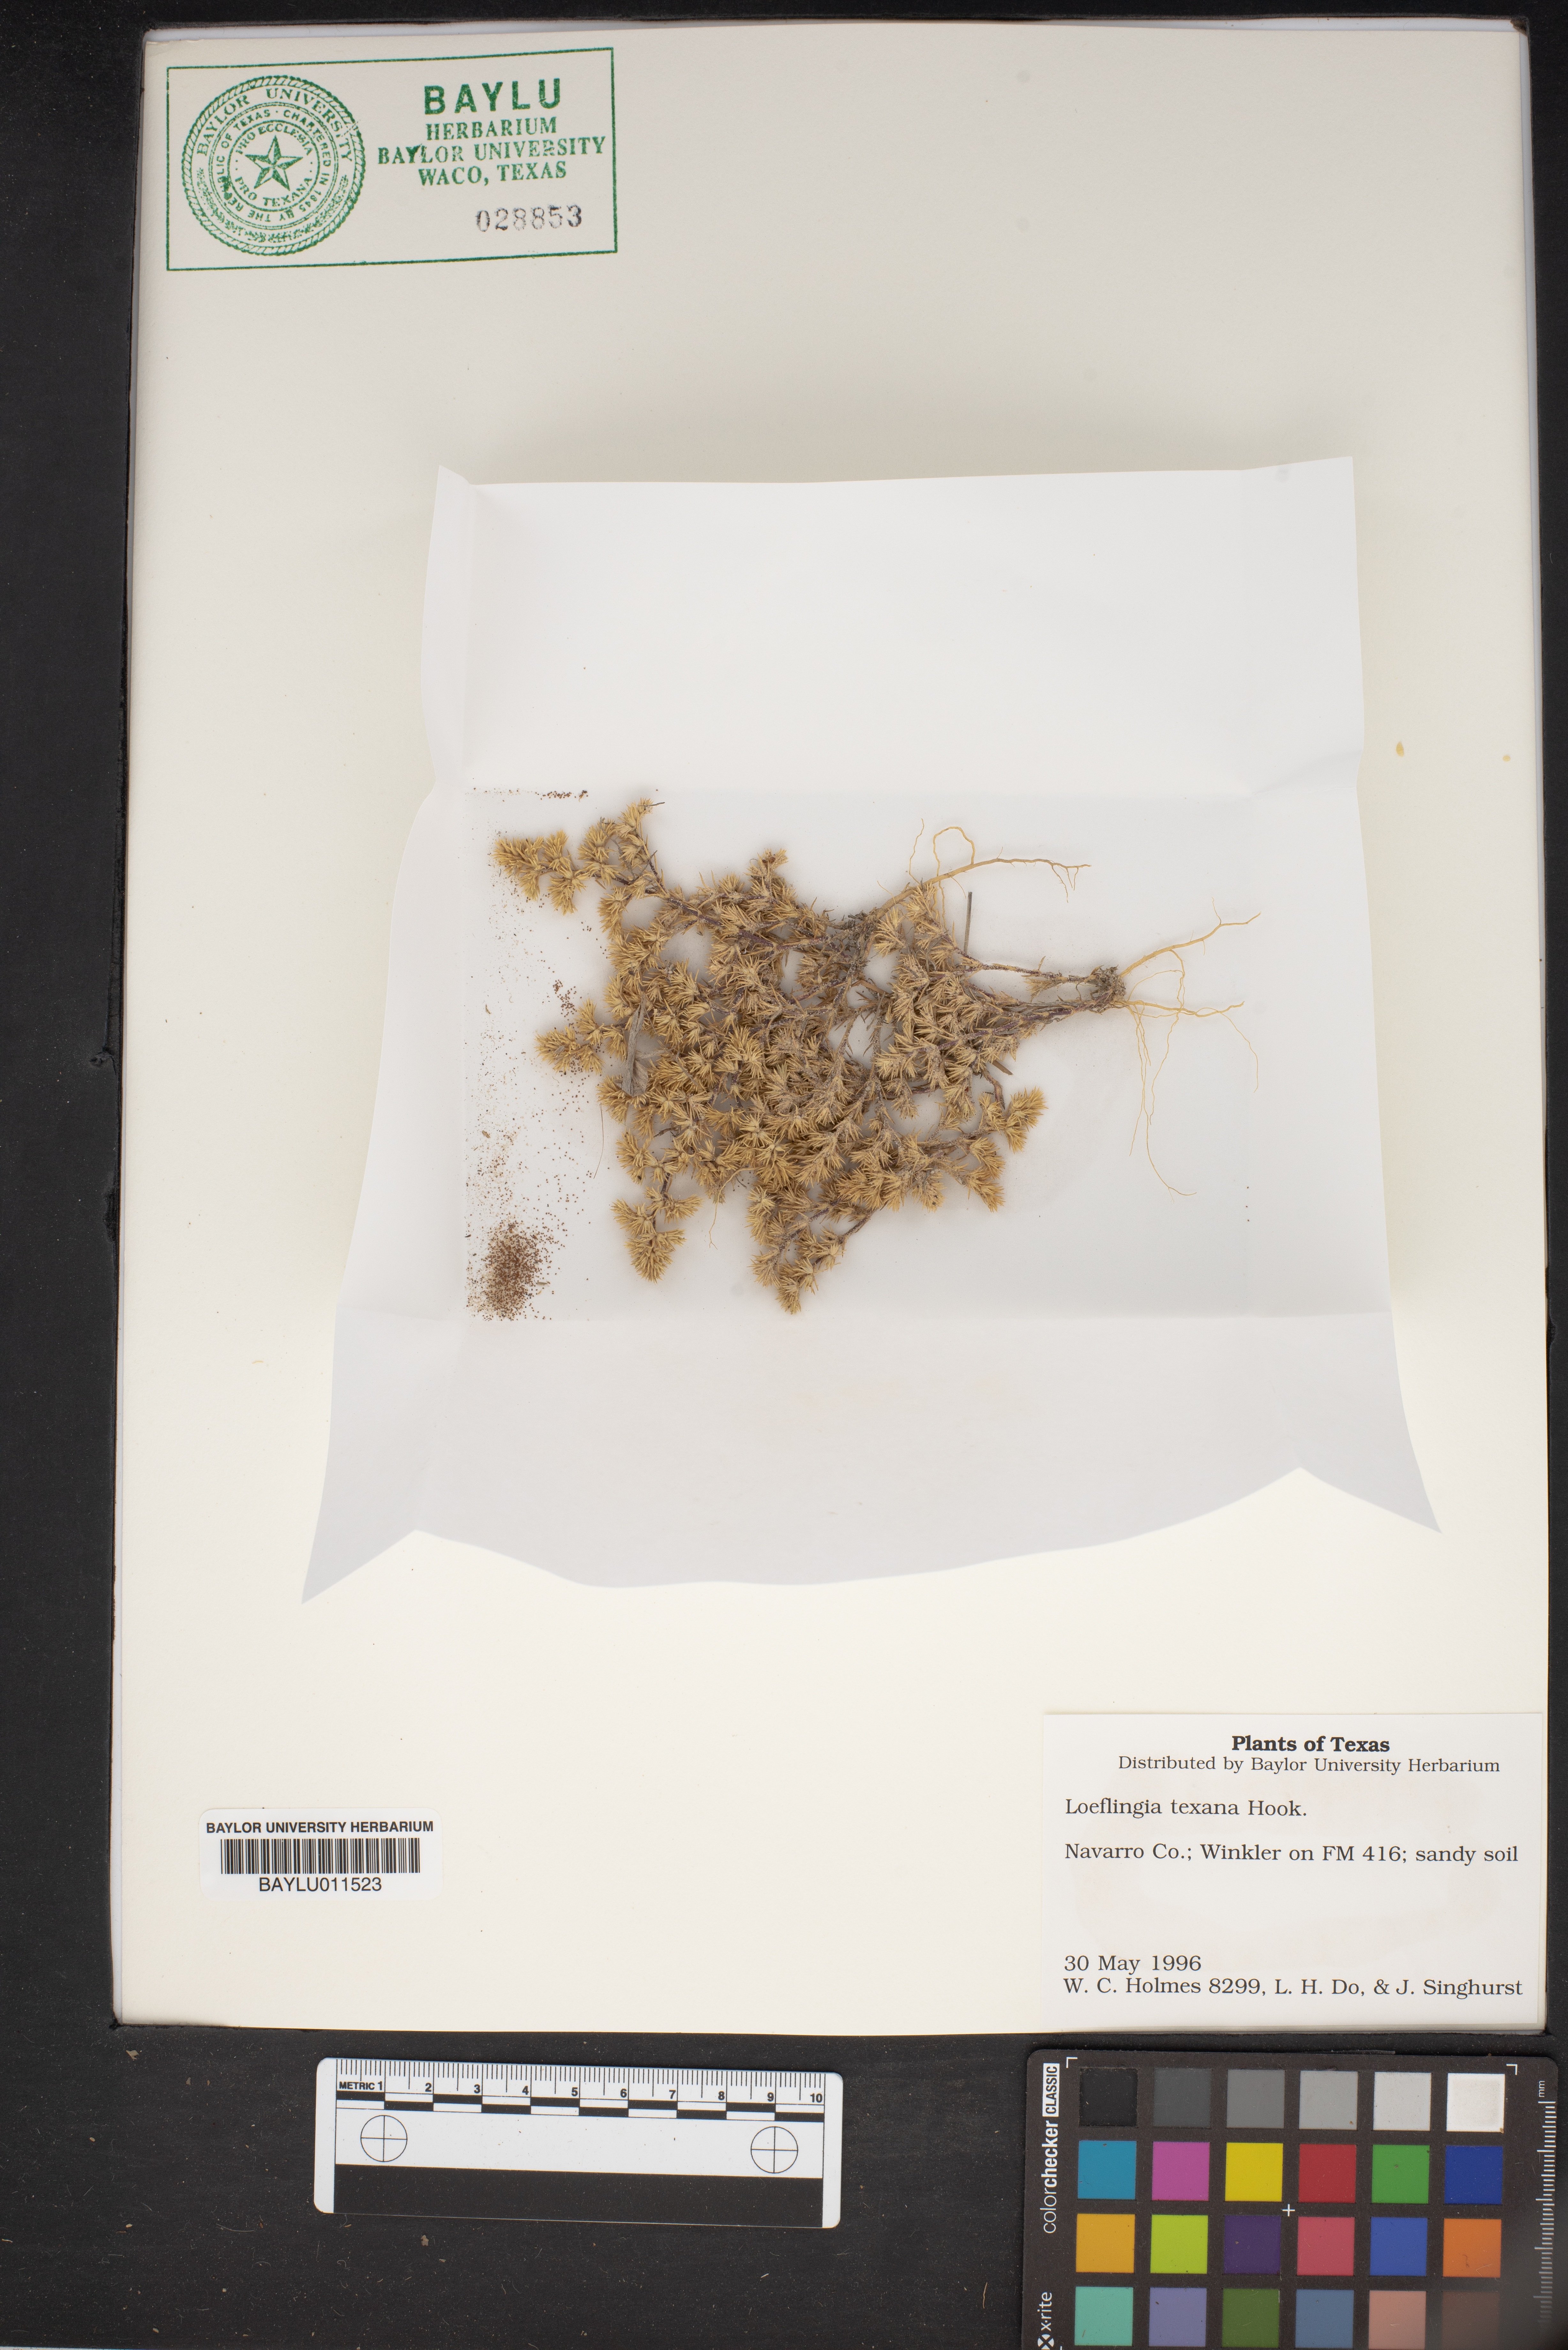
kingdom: Plantae
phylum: Tracheophyta
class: Magnoliopsida
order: Caryophyllales
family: Caryophyllaceae
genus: Loeflingia
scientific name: Loeflingia squarrosa
